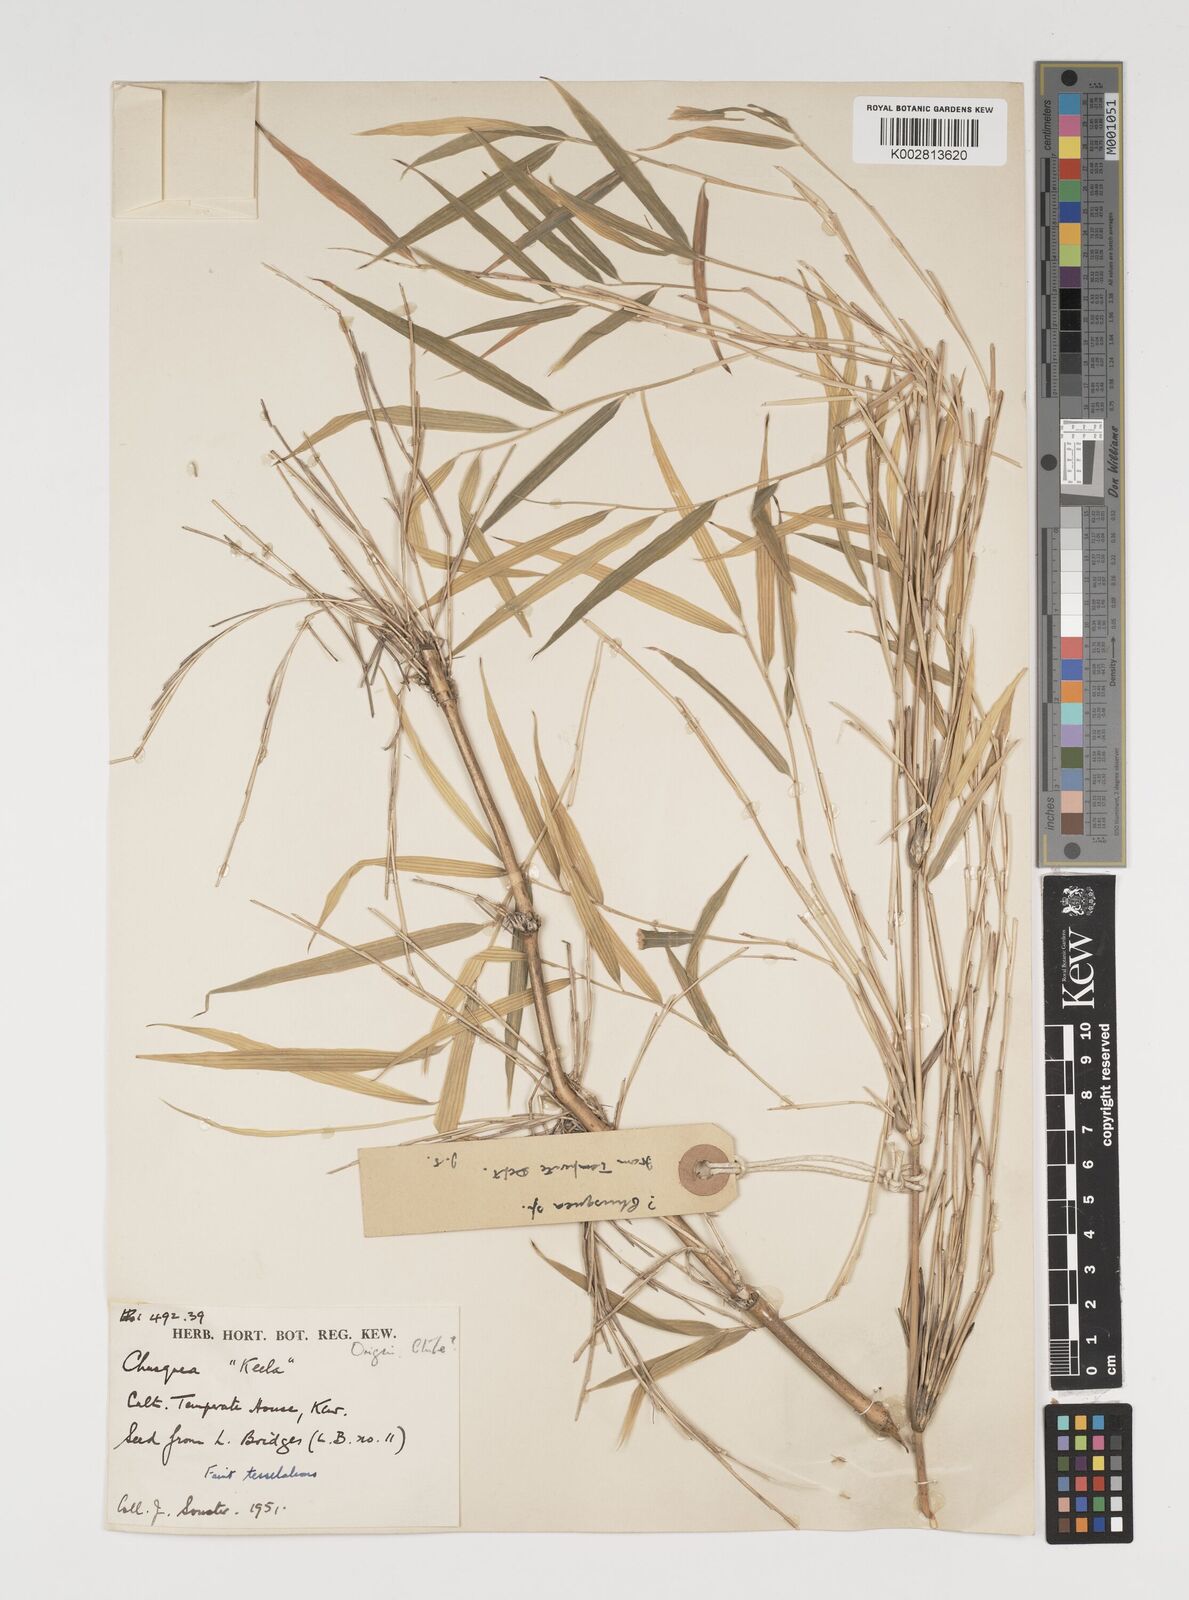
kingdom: Plantae
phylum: Tracheophyta
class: Liliopsida
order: Poales
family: Poaceae
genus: Chusquea
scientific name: Chusquea culeou
